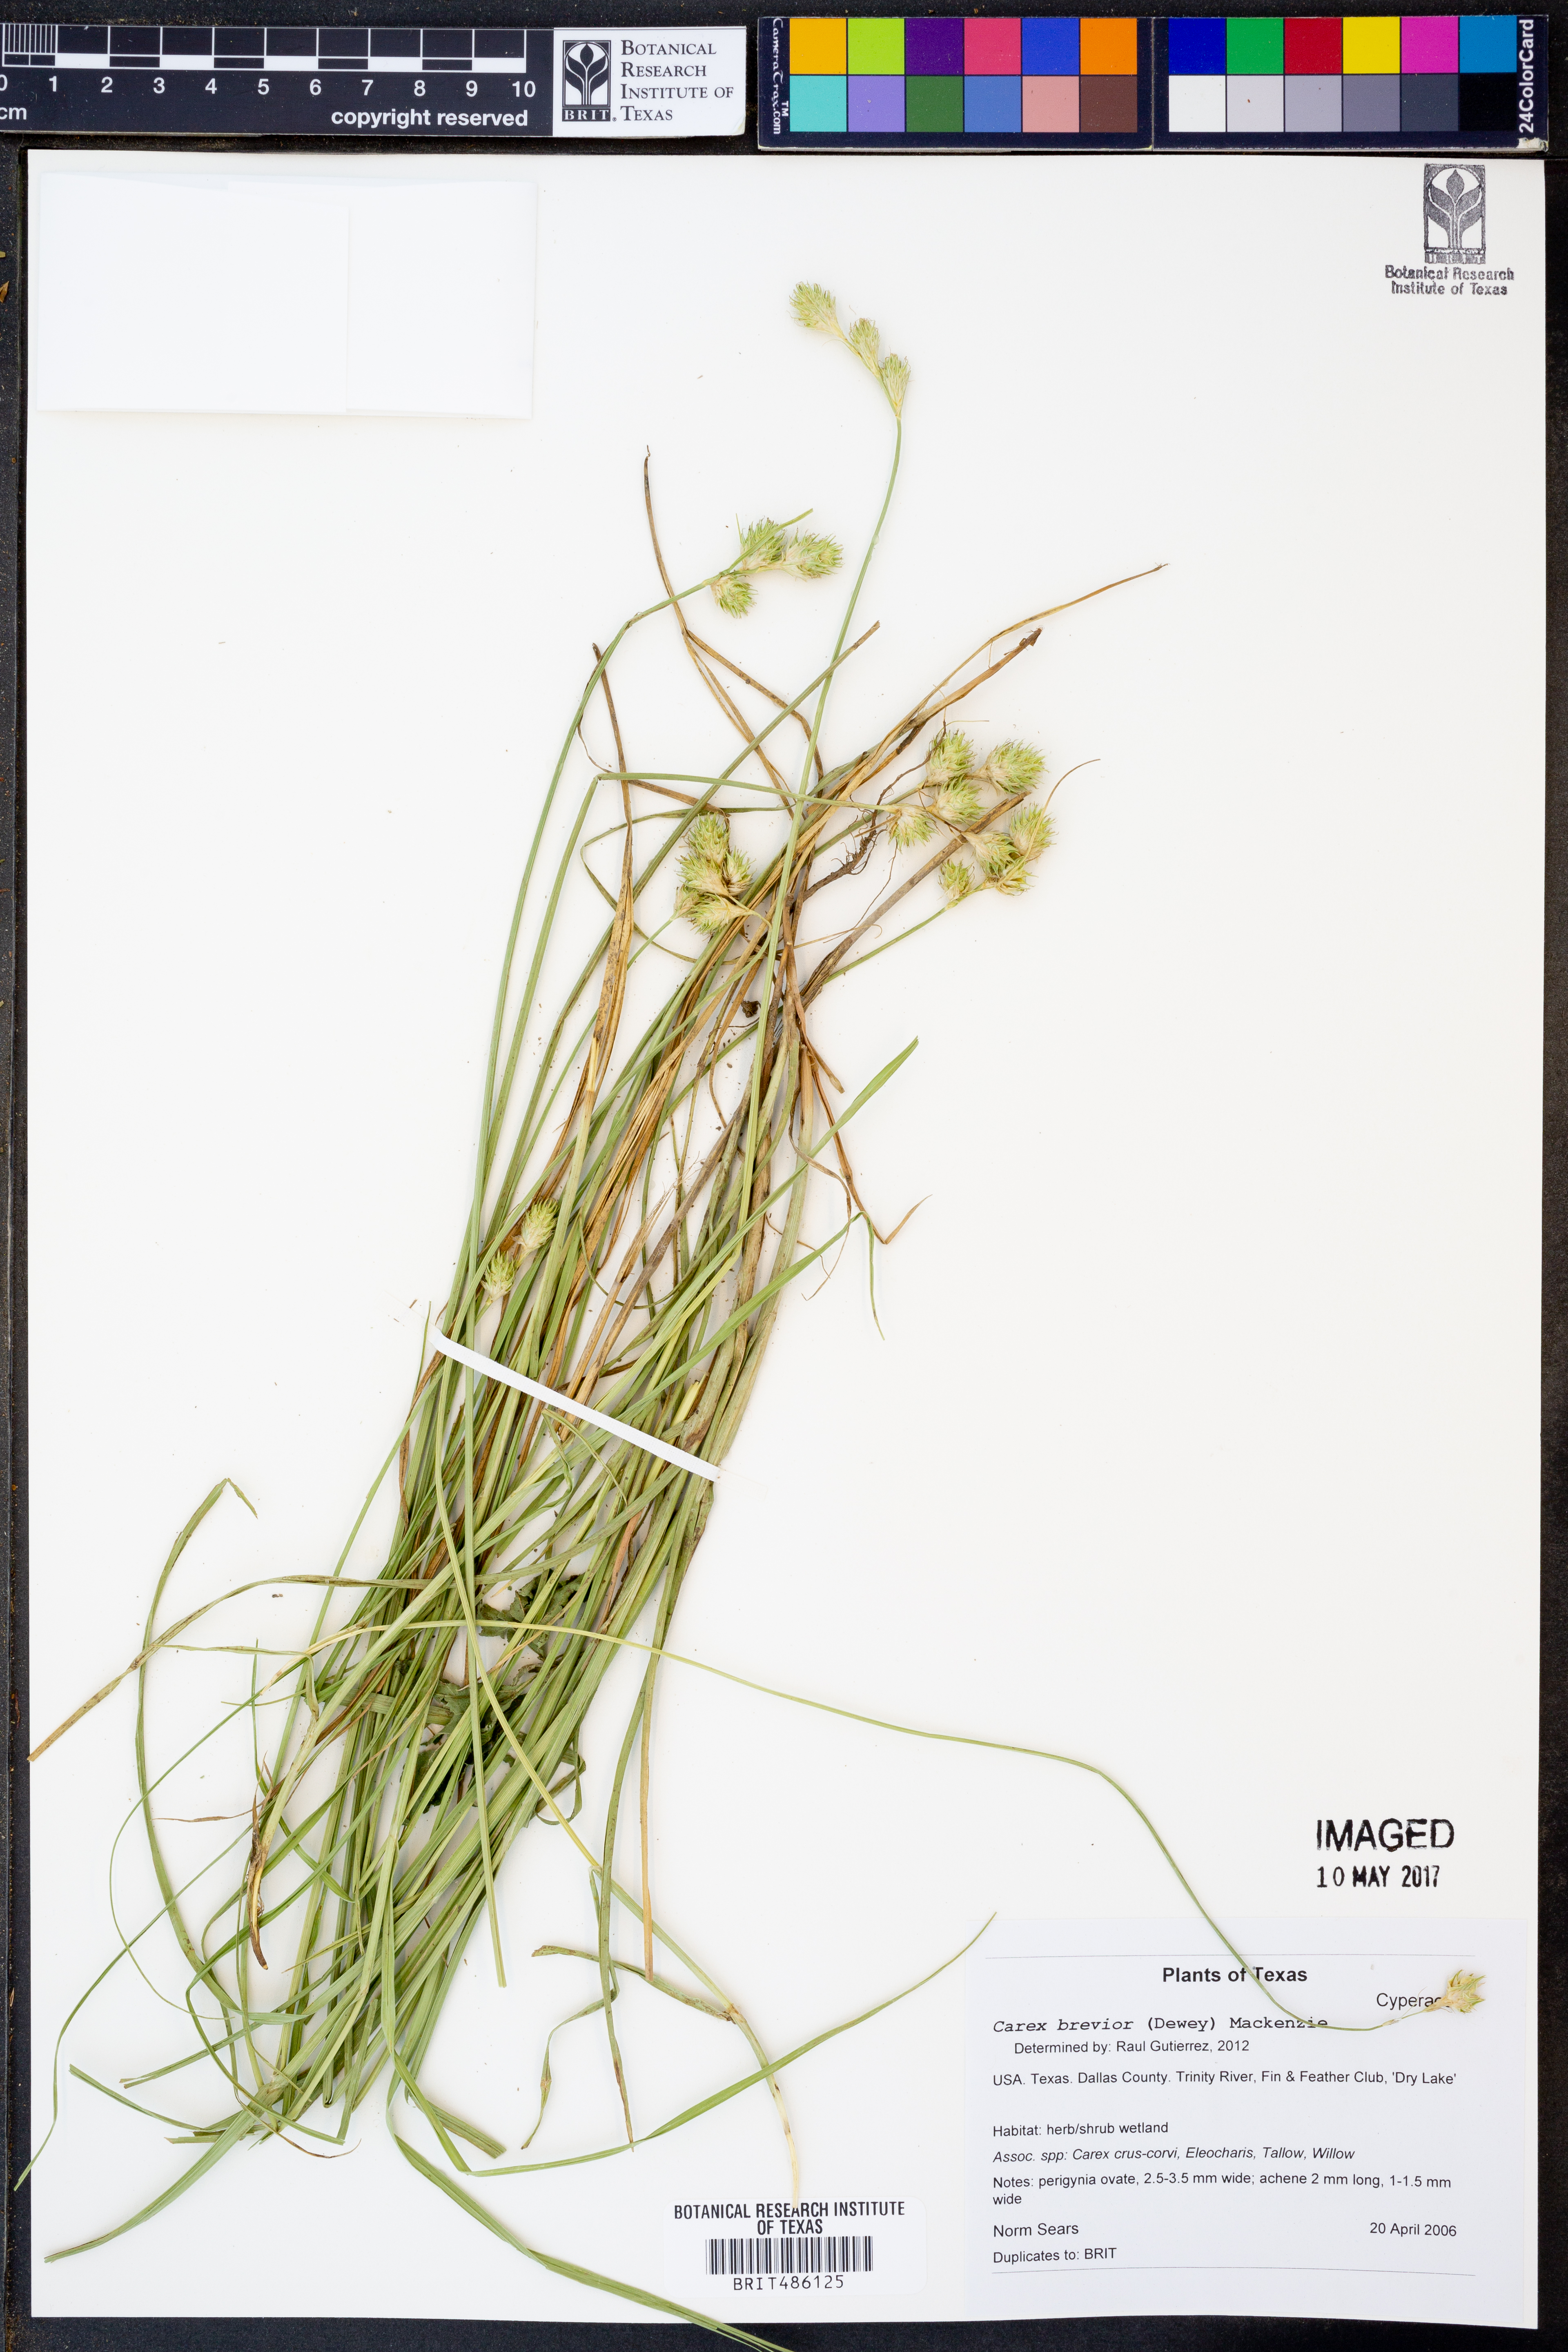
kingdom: Plantae
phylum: Tracheophyta
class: Liliopsida
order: Poales
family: Cyperaceae
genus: Carex
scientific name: Carex brevior
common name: Brevior sedge
